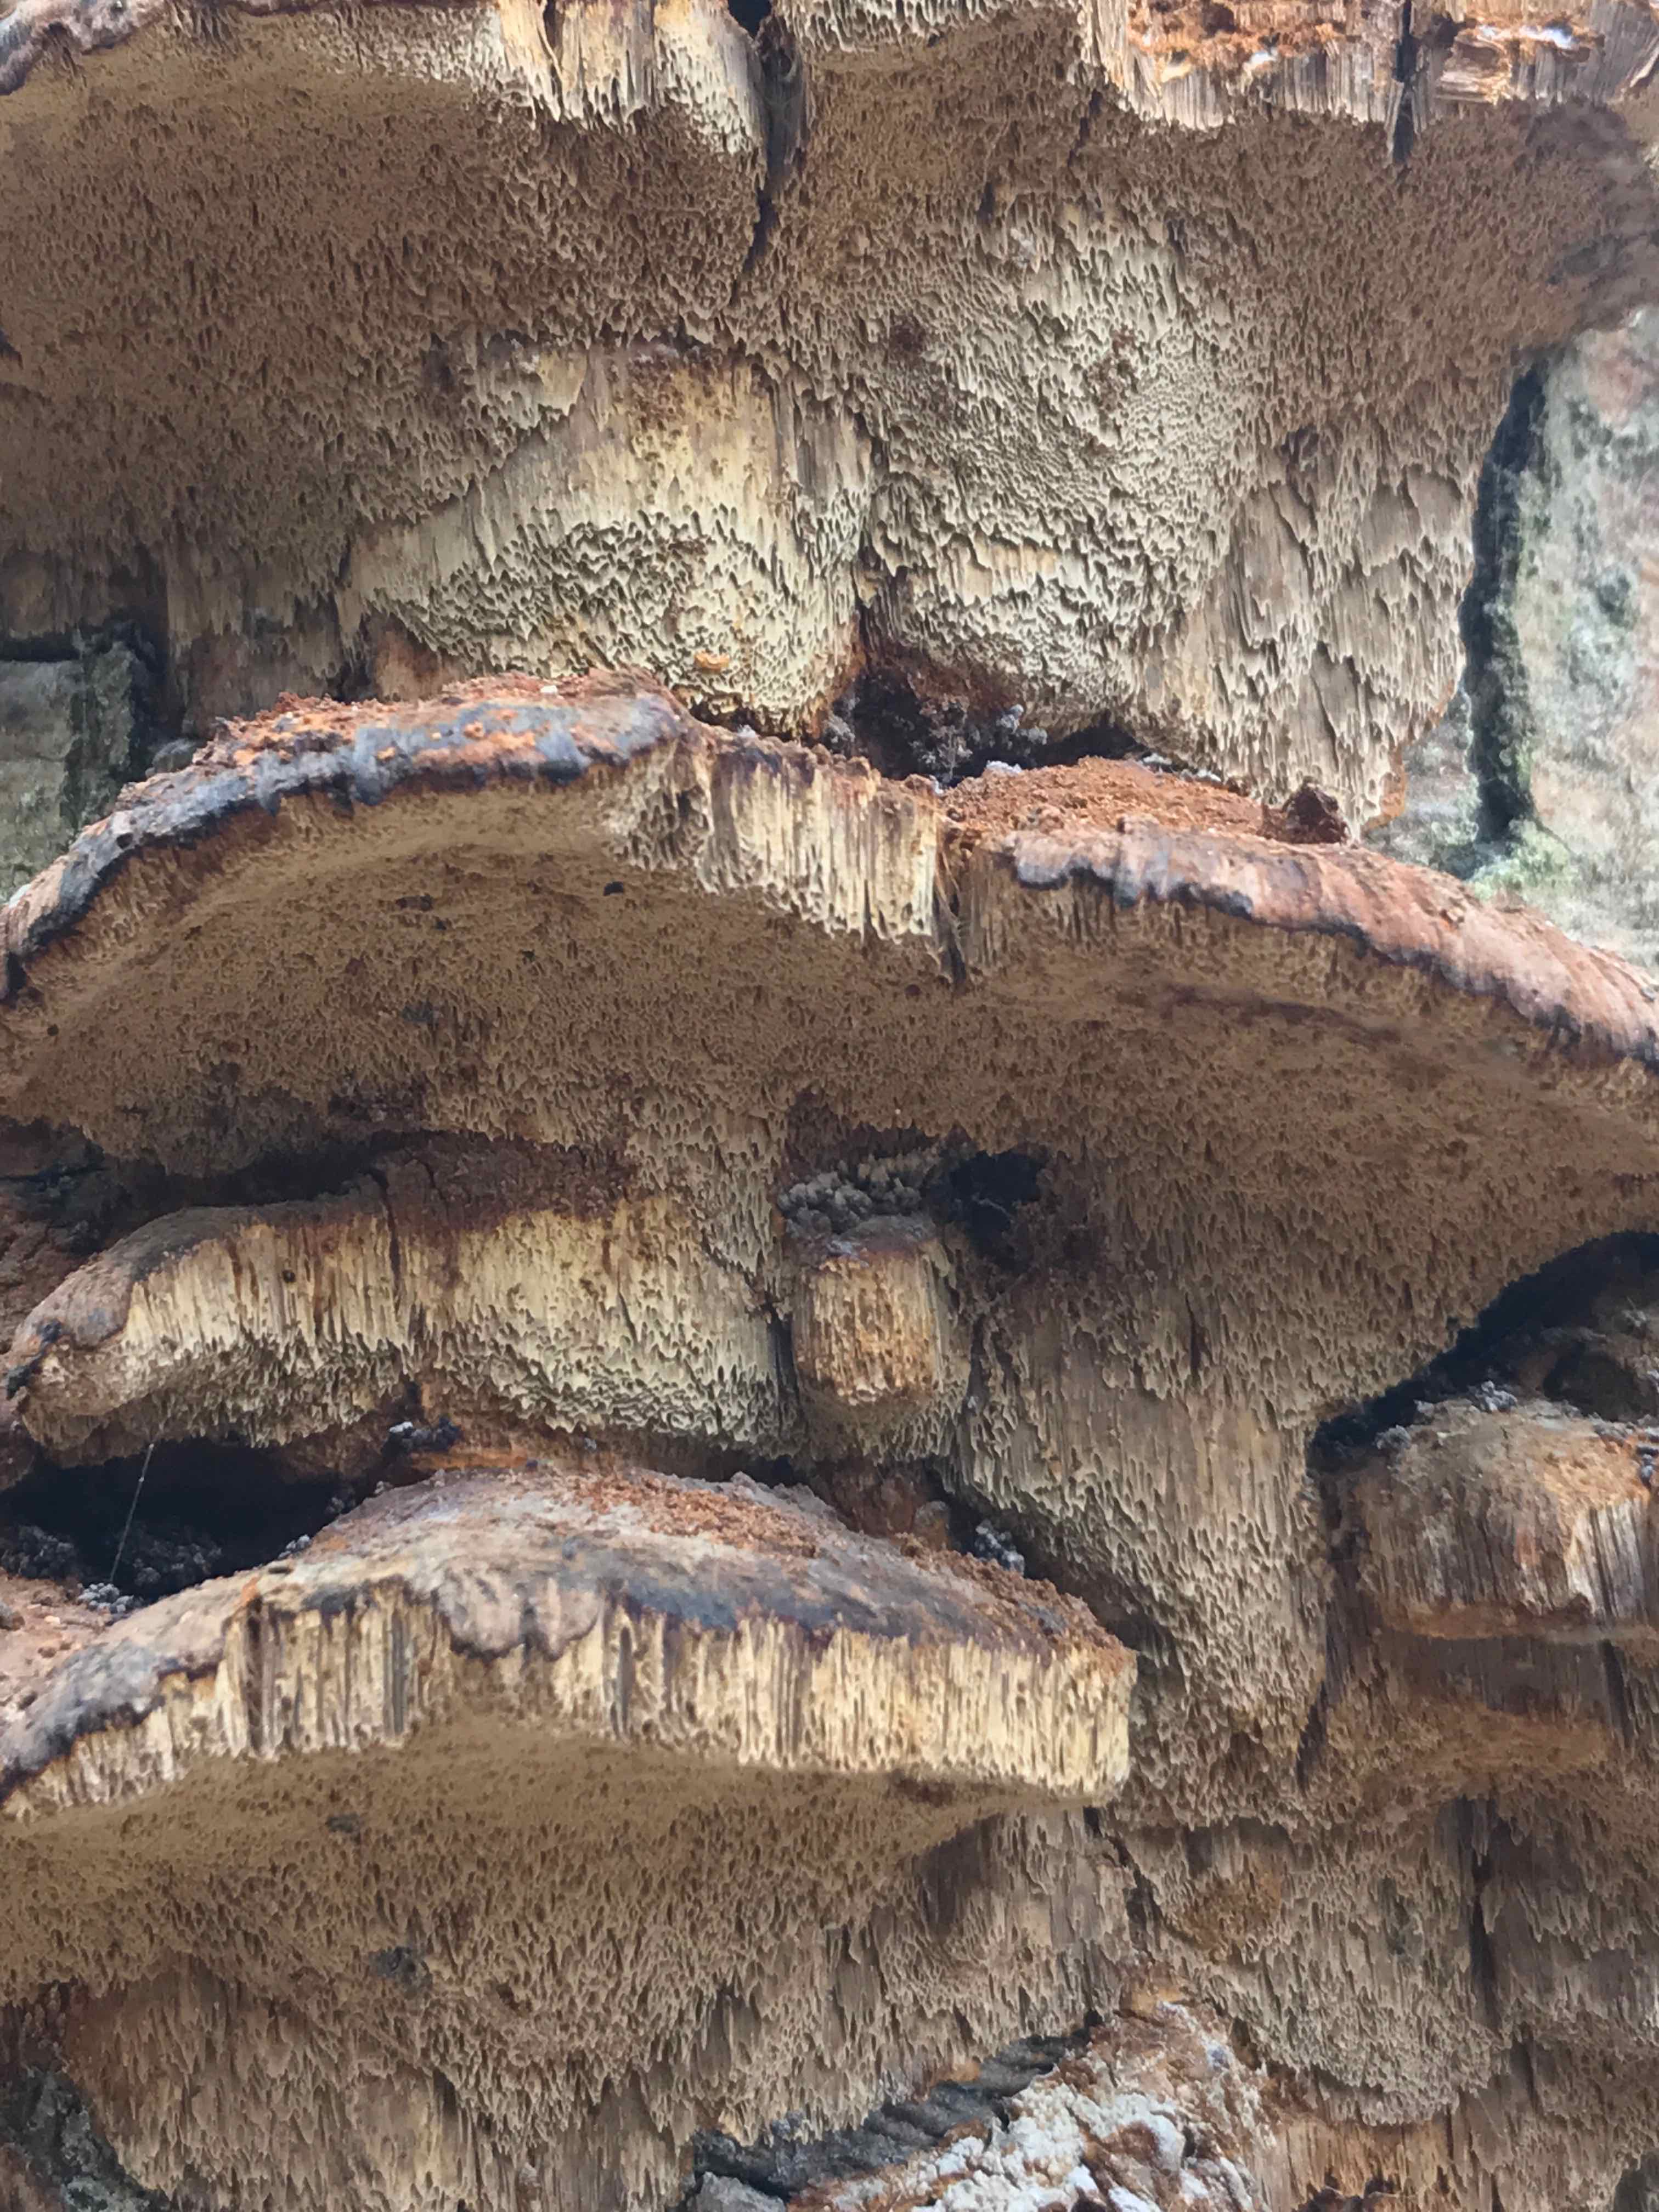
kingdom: Fungi
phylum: Basidiomycota
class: Agaricomycetes
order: Hymenochaetales
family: Hymenochaetaceae
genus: Xanthoporia
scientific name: Xanthoporia radiata
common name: elle-spejlporesvamp
